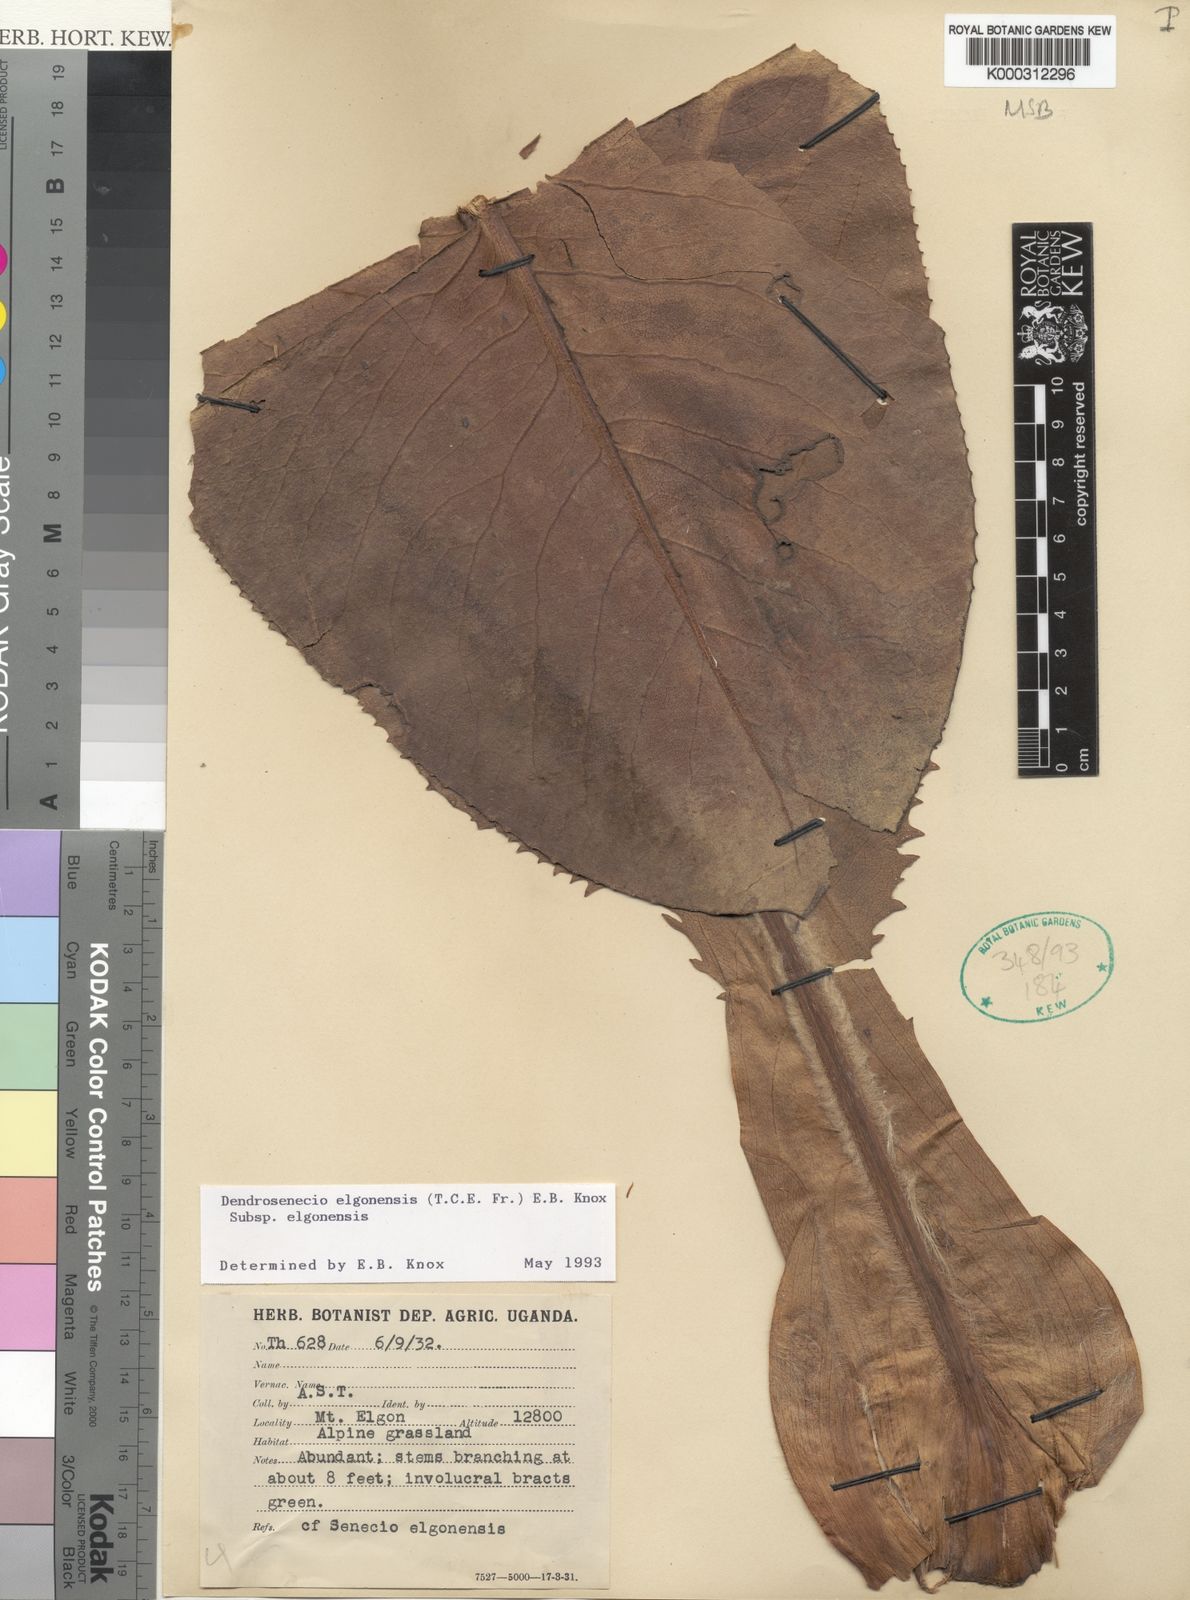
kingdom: Plantae
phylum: Tracheophyta
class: Magnoliopsida
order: Asterales
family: Asteraceae
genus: Dendrosenecio
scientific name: Dendrosenecio elgonensis
